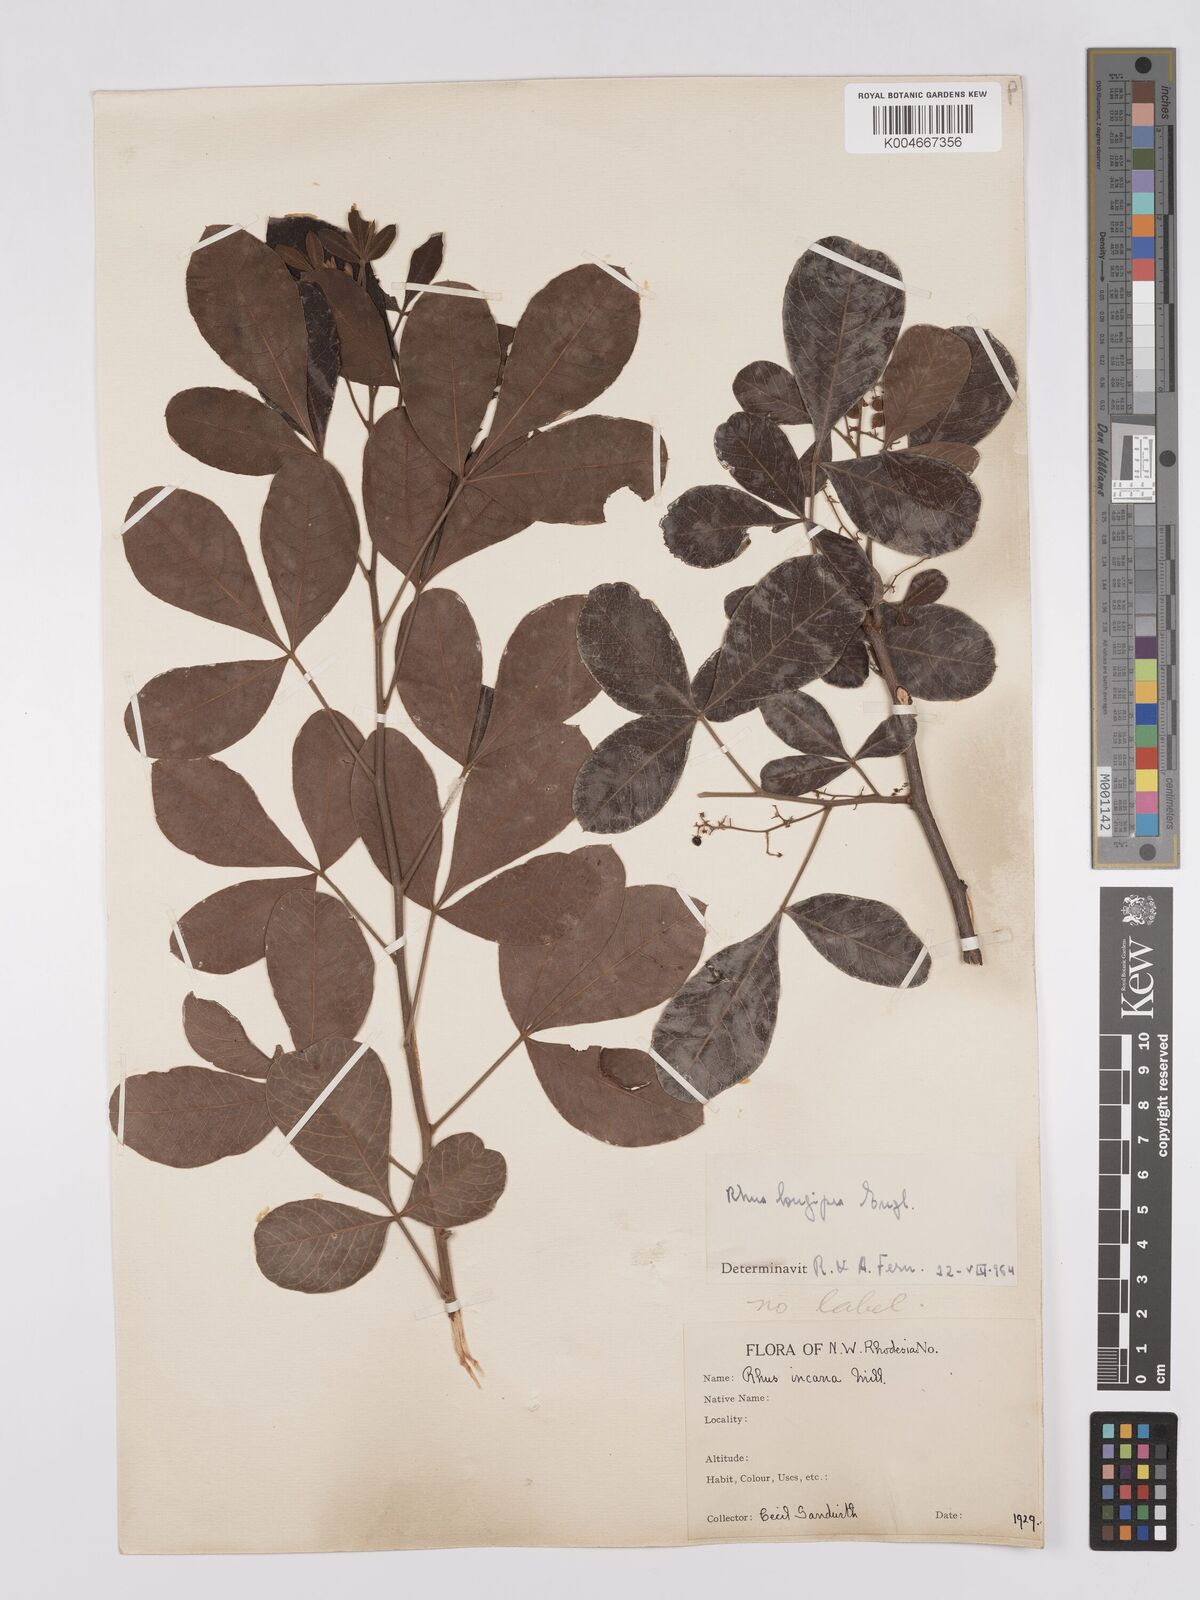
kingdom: Plantae
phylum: Tracheophyta
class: Magnoliopsida
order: Sapindales
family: Anacardiaceae
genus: Searsia
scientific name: Searsia longipes
